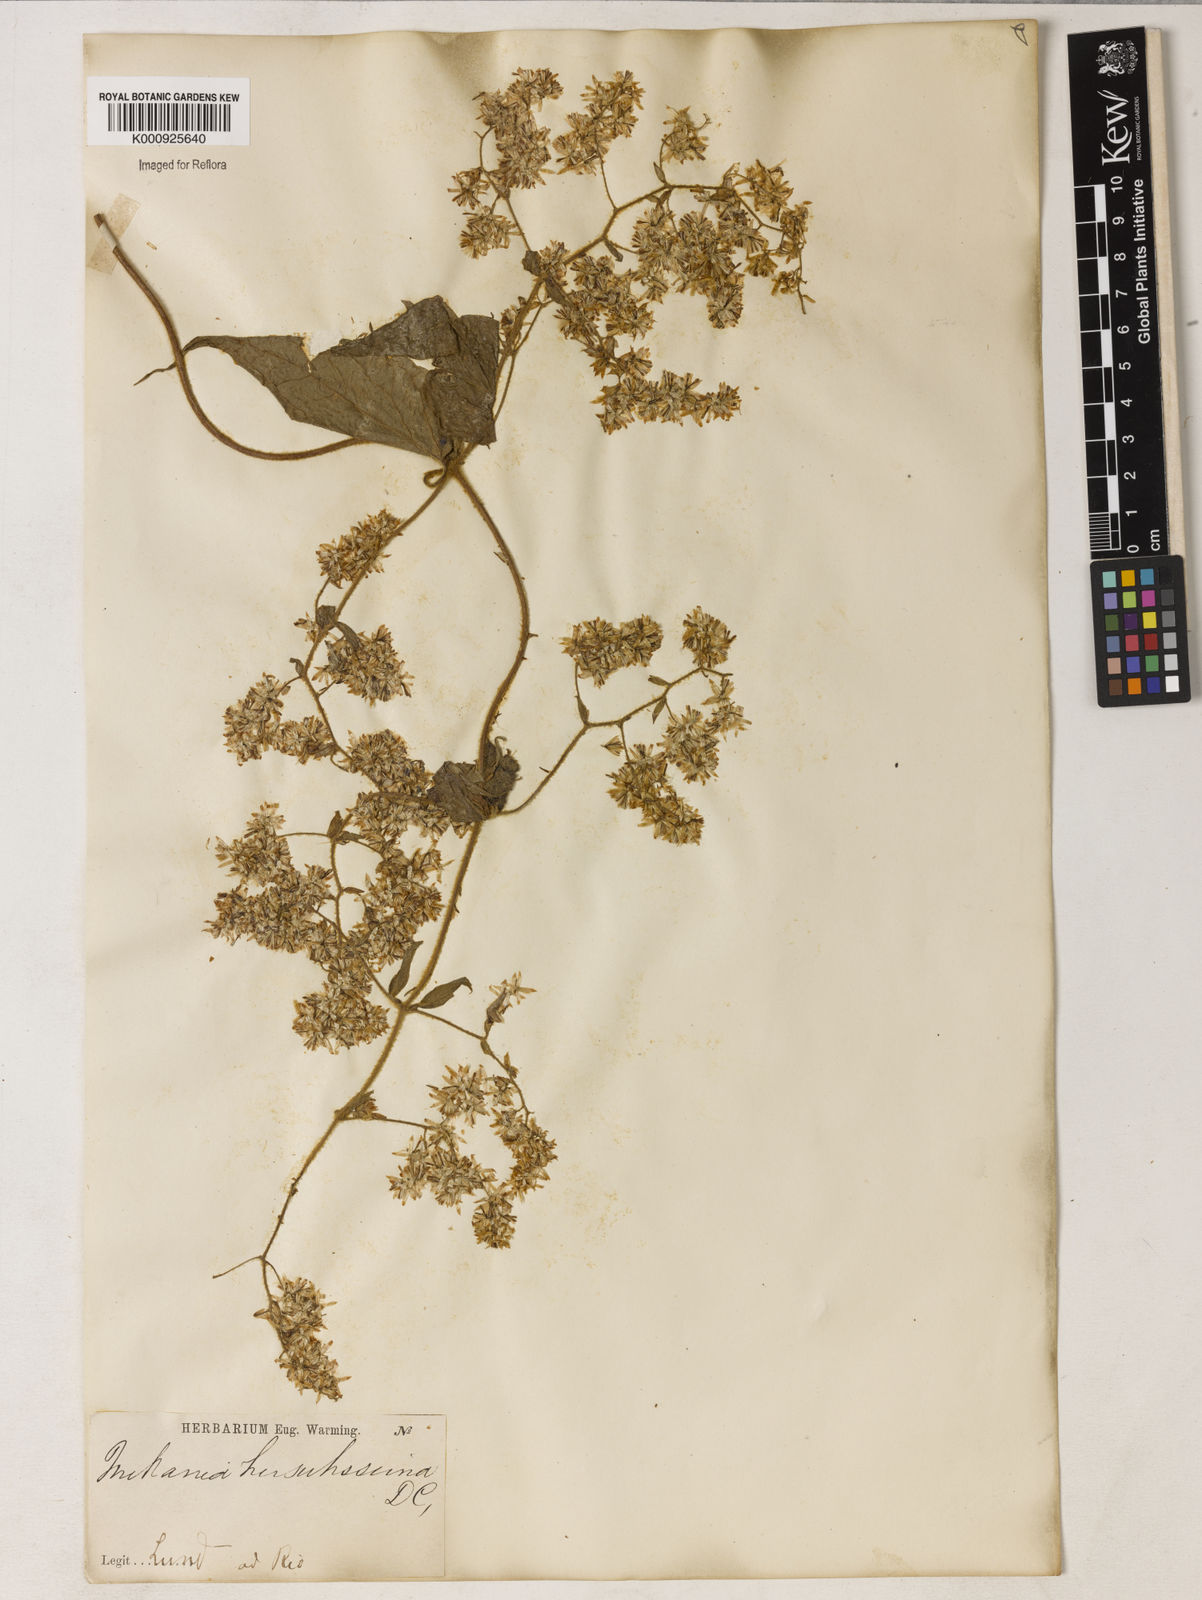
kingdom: Plantae
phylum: Tracheophyta
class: Magnoliopsida
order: Asterales
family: Asteraceae
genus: Mikania
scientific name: Mikania banisteriae
